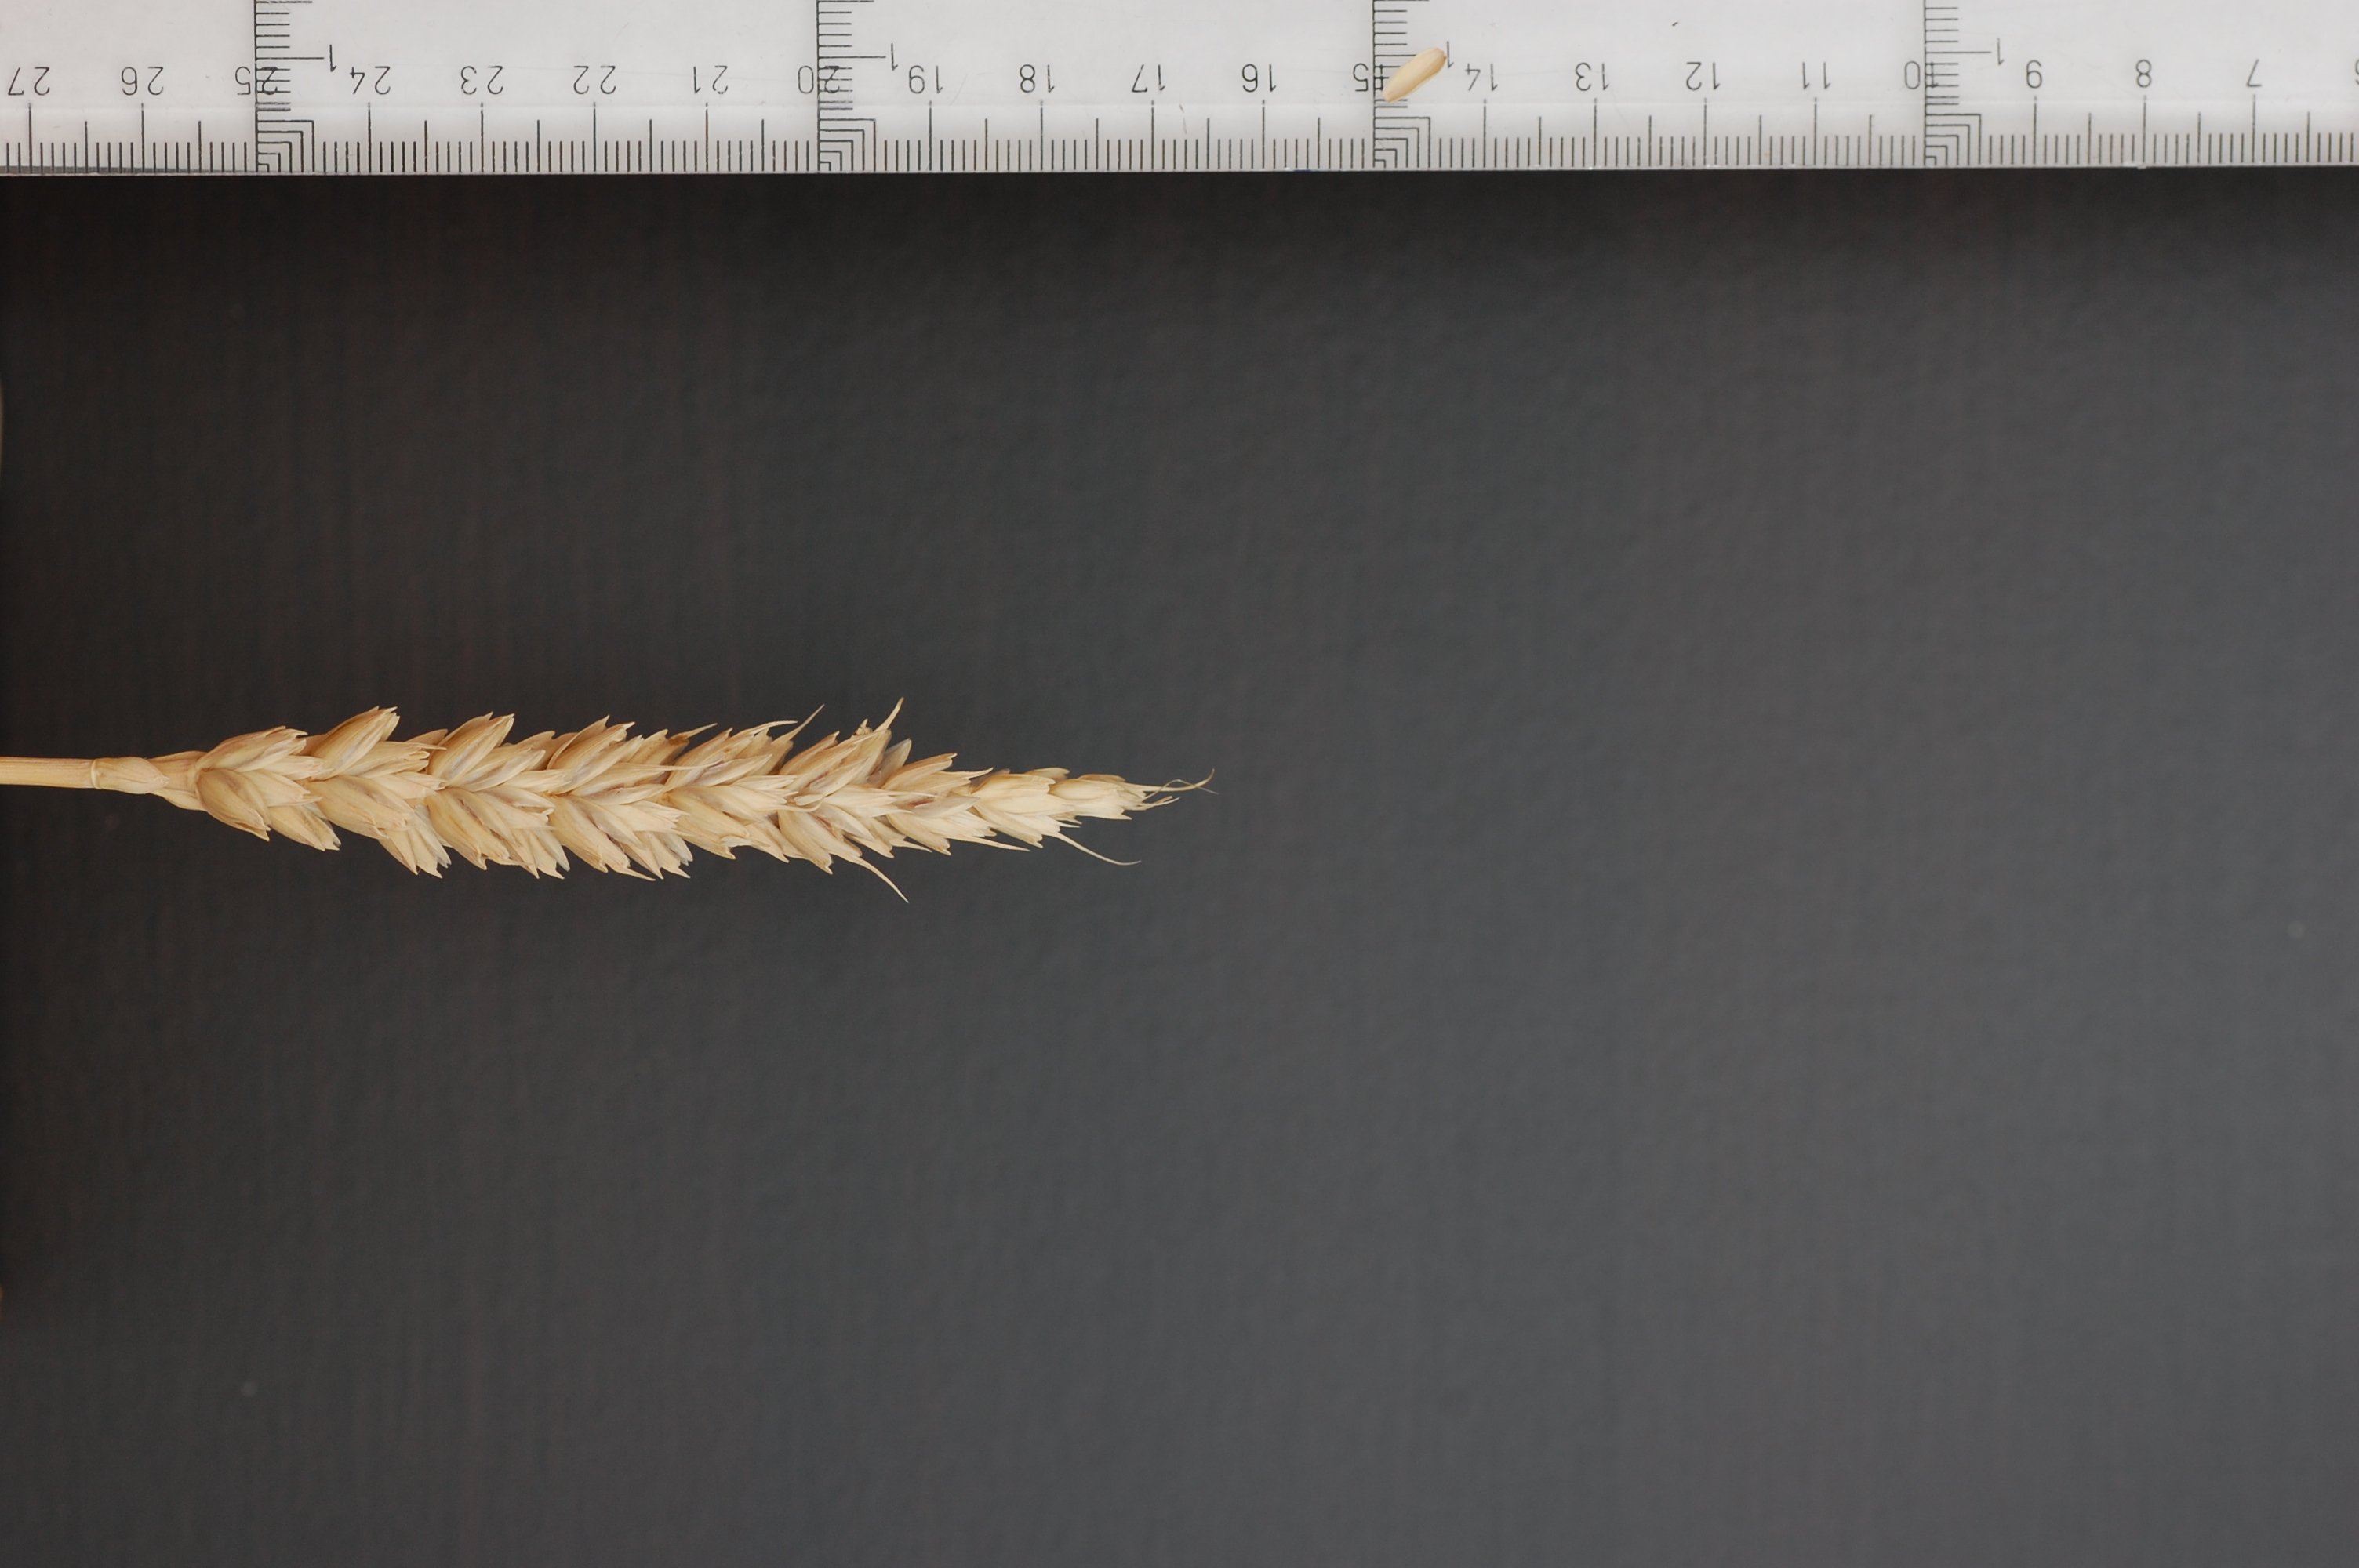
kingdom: Plantae
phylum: Tracheophyta
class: Liliopsida
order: Poales
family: Poaceae
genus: Triticum
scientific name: Triticum aestivum
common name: Common wheat
